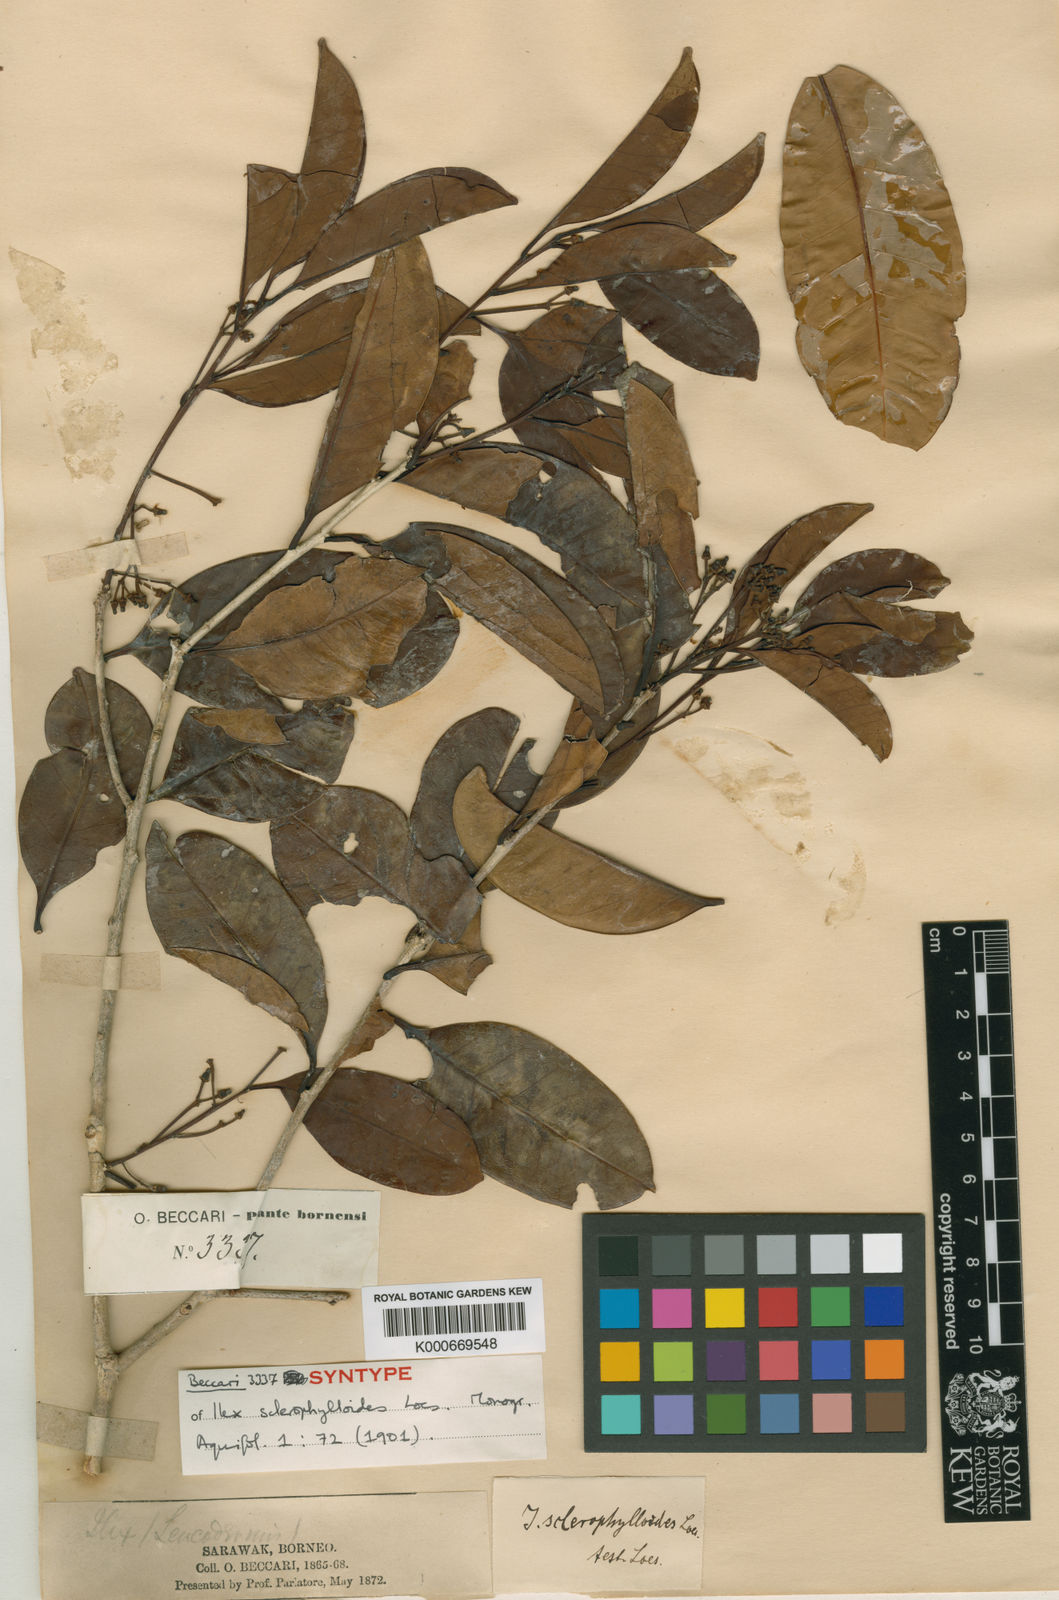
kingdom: Plantae
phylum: Tracheophyta
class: Magnoliopsida
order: Aquifoliales
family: Aquifoliaceae
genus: Ilex
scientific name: Ilex wallichii
